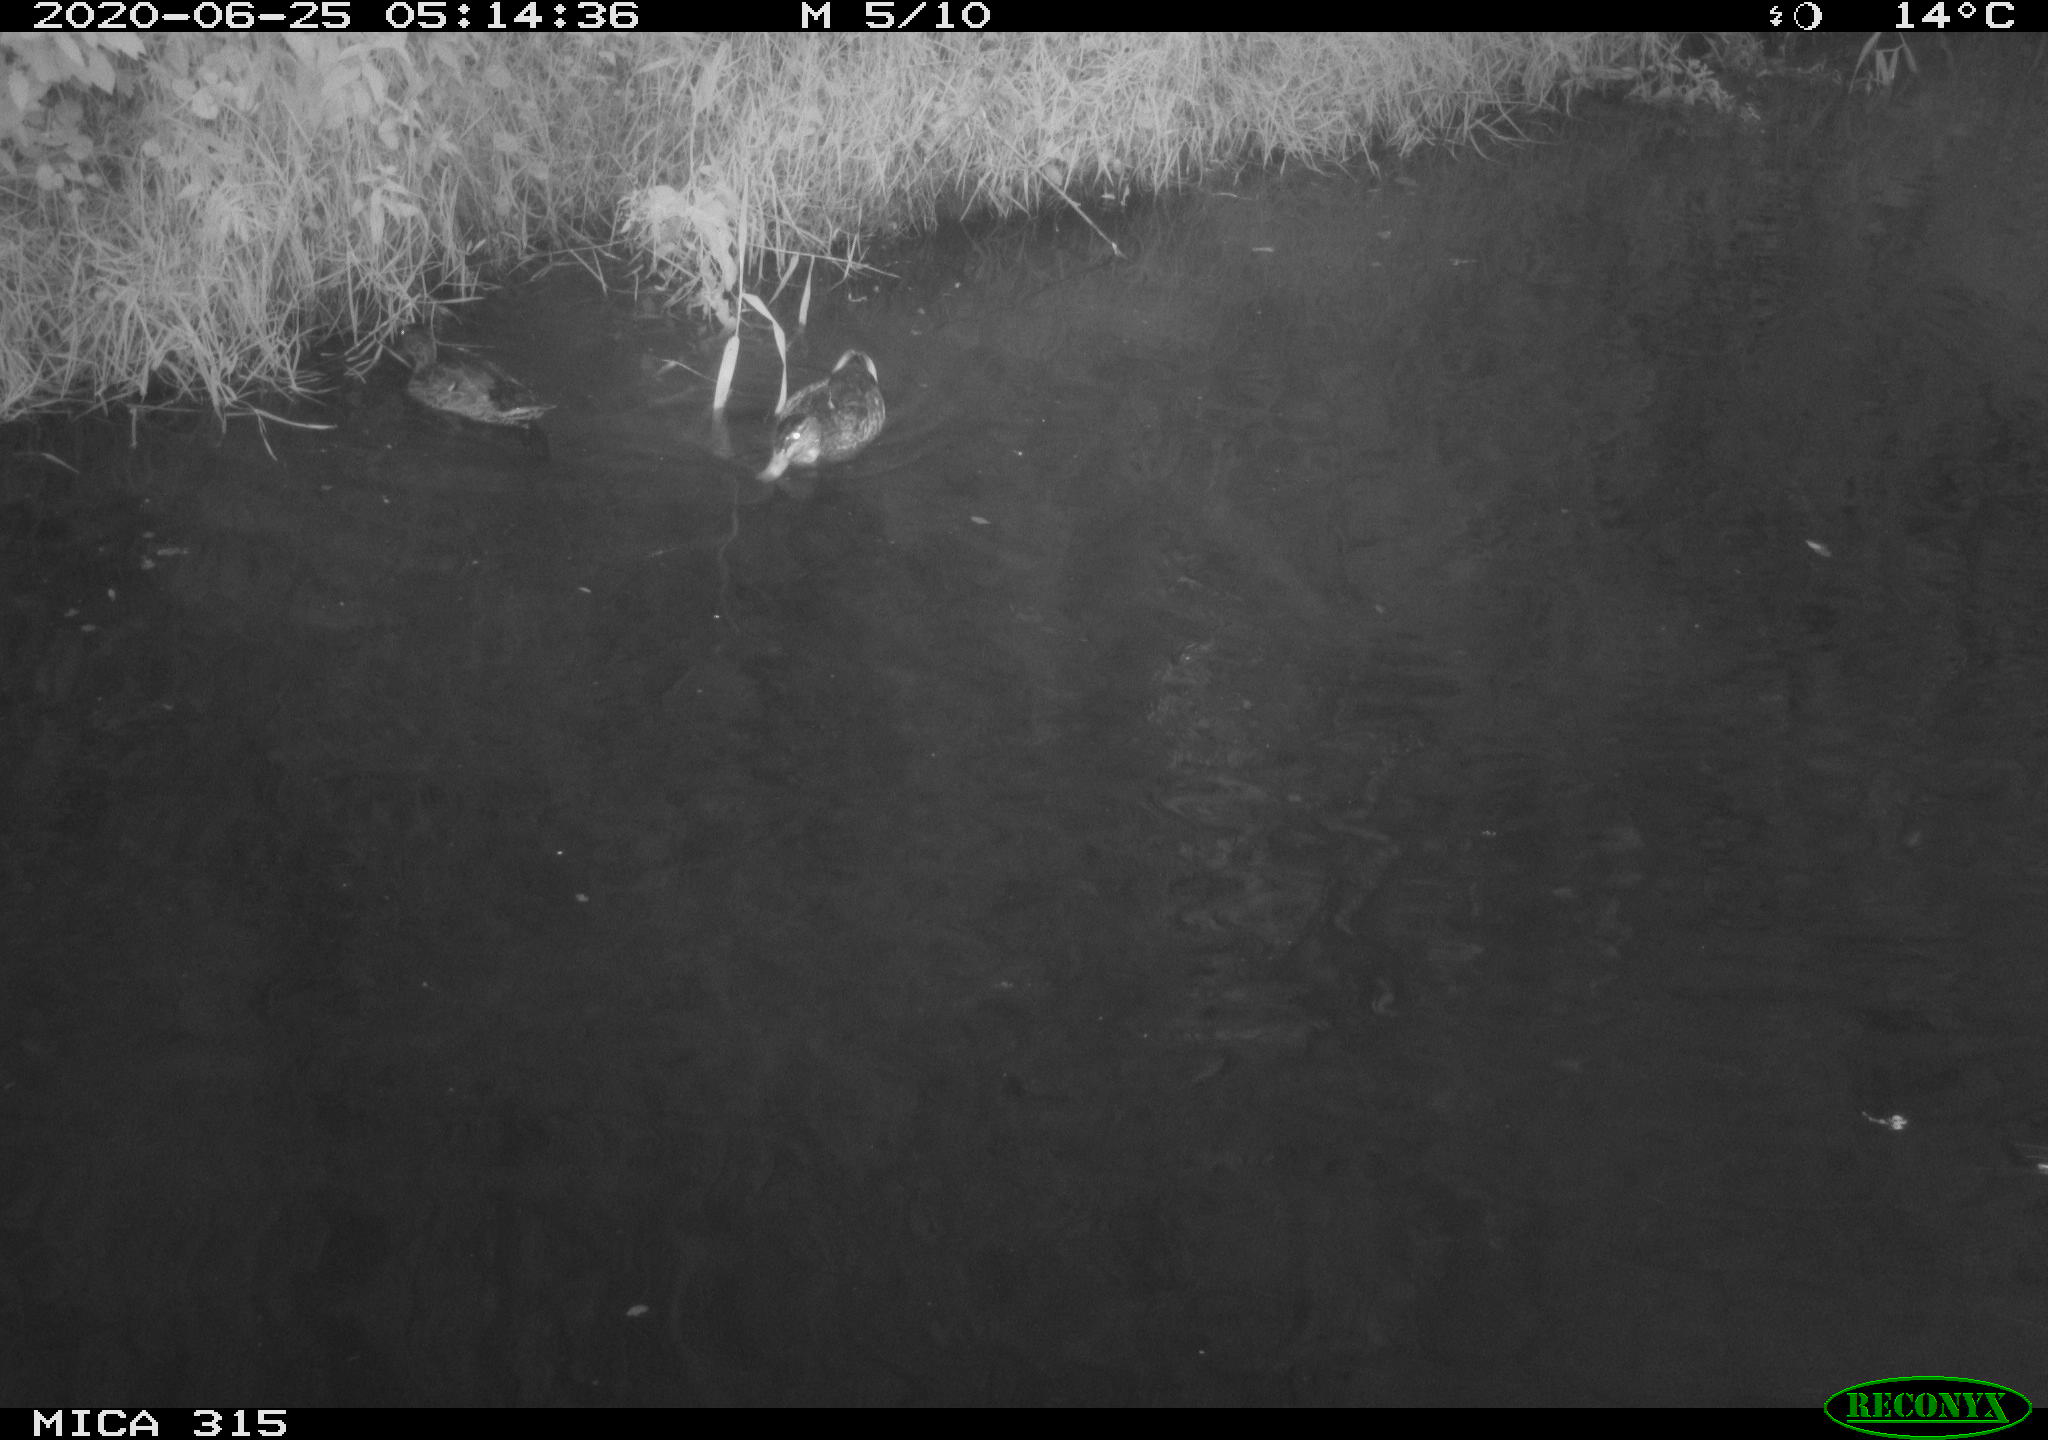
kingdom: Animalia
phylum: Chordata
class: Aves
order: Anseriformes
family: Anatidae
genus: Anas
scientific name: Anas platyrhynchos
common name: Mallard
